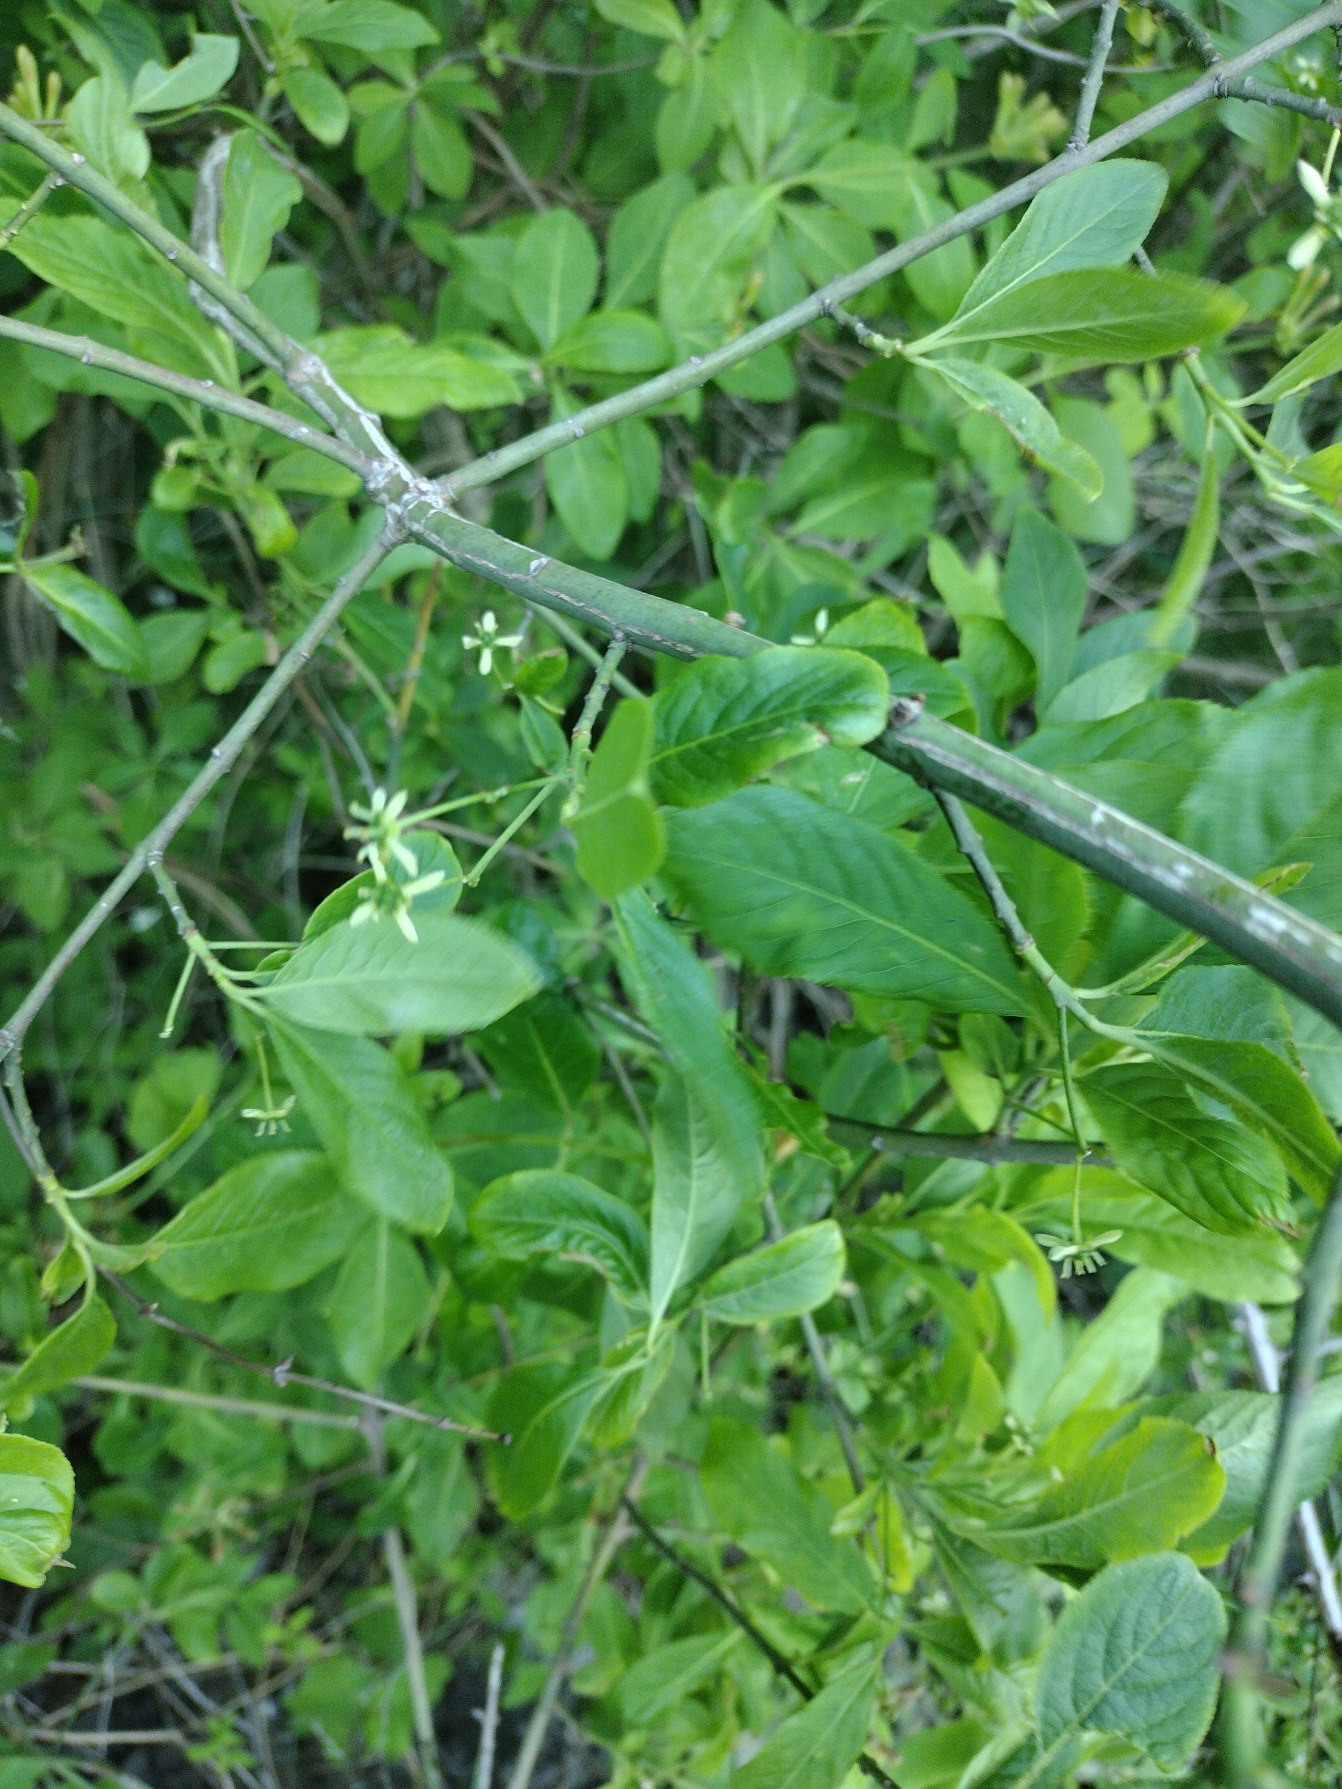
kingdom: Plantae
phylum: Tracheophyta
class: Magnoliopsida
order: Celastrales
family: Celastraceae
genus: Euonymus
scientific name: Euonymus europaeus
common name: Benved
